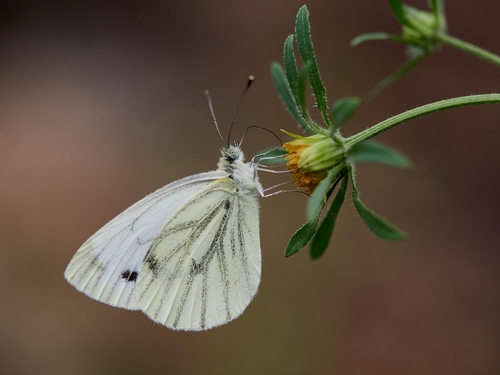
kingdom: Animalia
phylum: Arthropoda
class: Insecta
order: Lepidoptera
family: Pieridae
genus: Pieris
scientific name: Pieris napi
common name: Green-veined white
